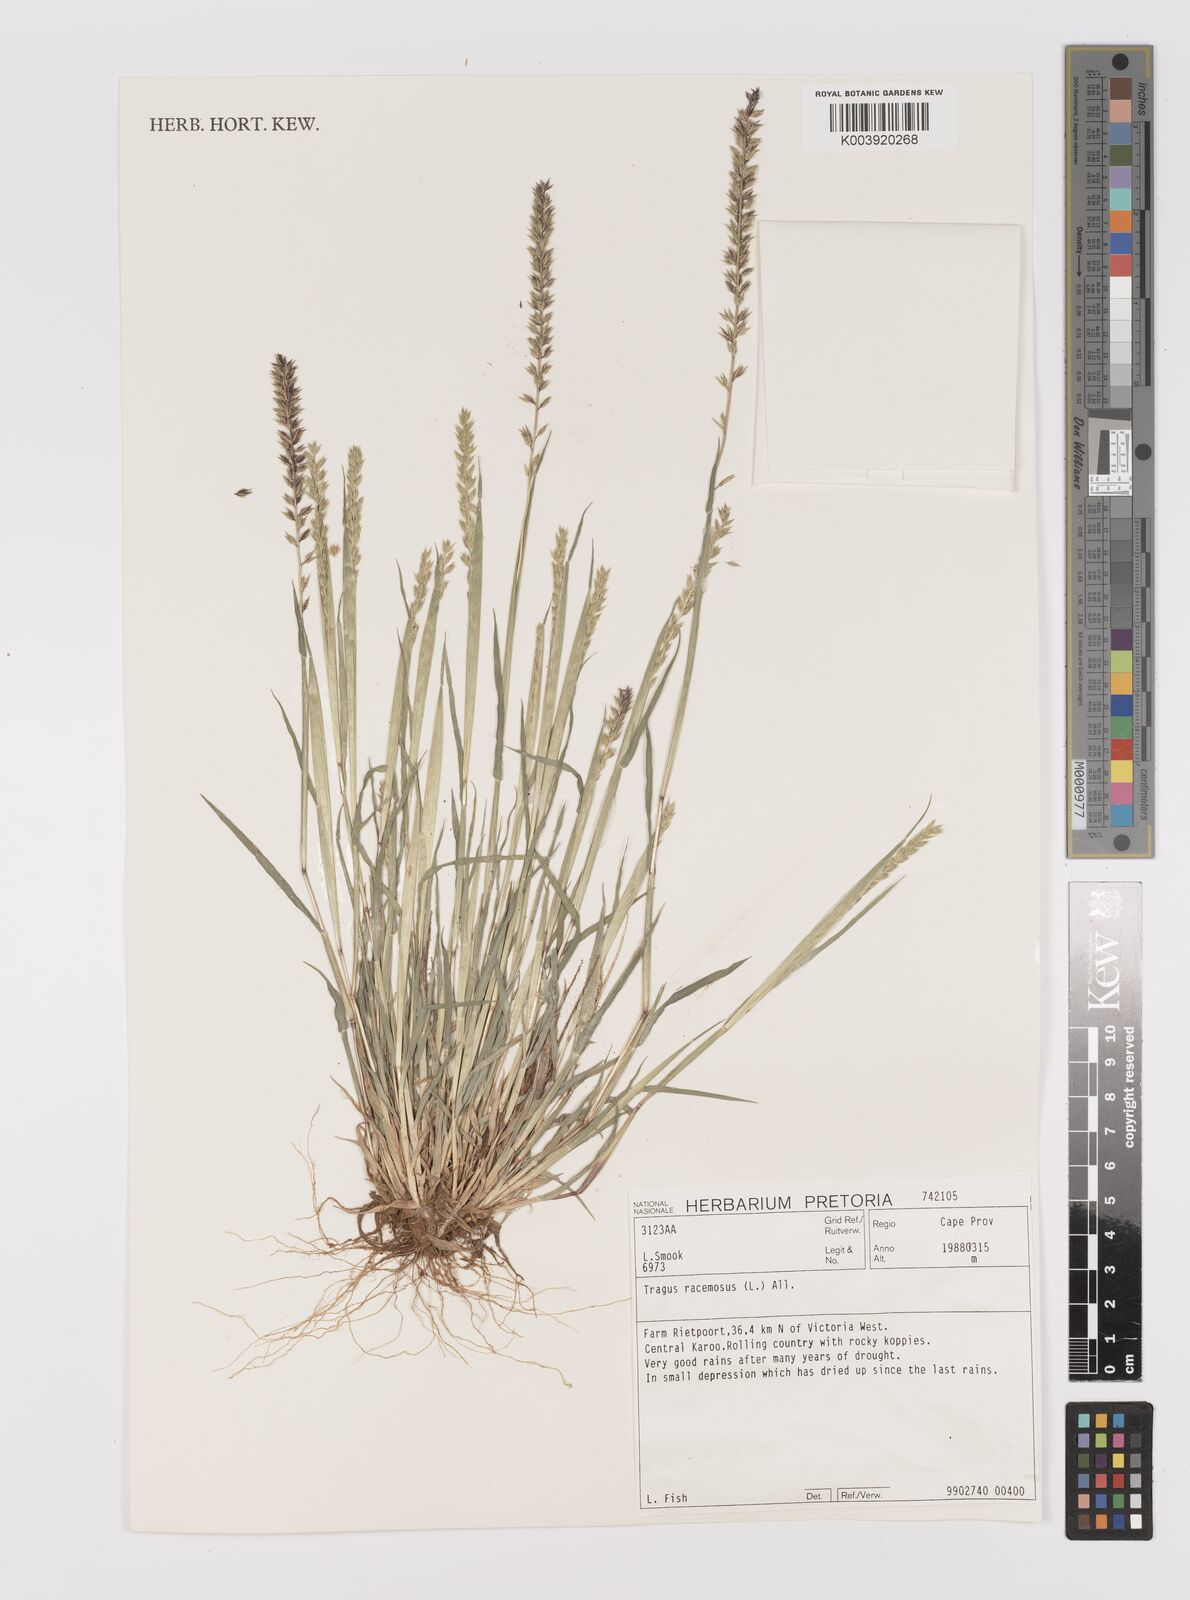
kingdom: Plantae
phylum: Tracheophyta
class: Liliopsida
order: Poales
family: Poaceae
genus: Tragus
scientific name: Tragus racemosus
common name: European bur-grass
